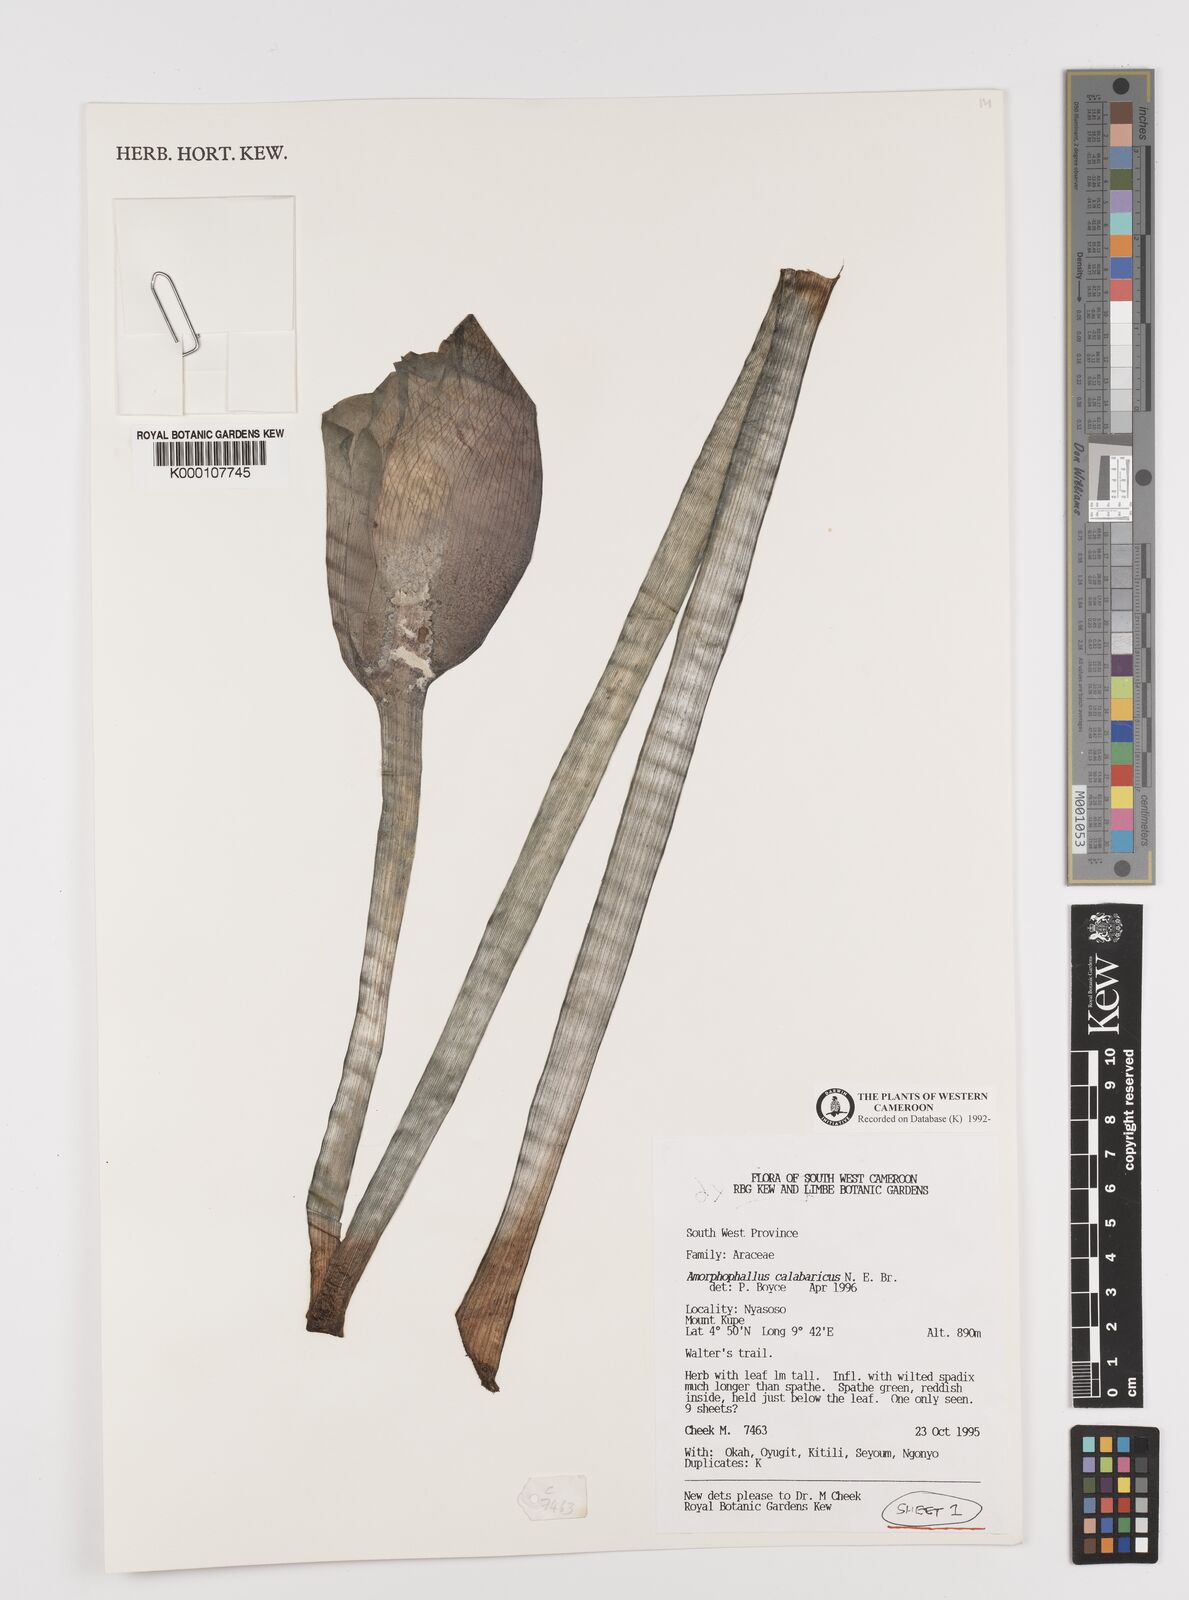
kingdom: Plantae
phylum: Tracheophyta
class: Liliopsida
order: Alismatales
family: Araceae
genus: Amorphophallus
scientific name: Amorphophallus calabaricus
